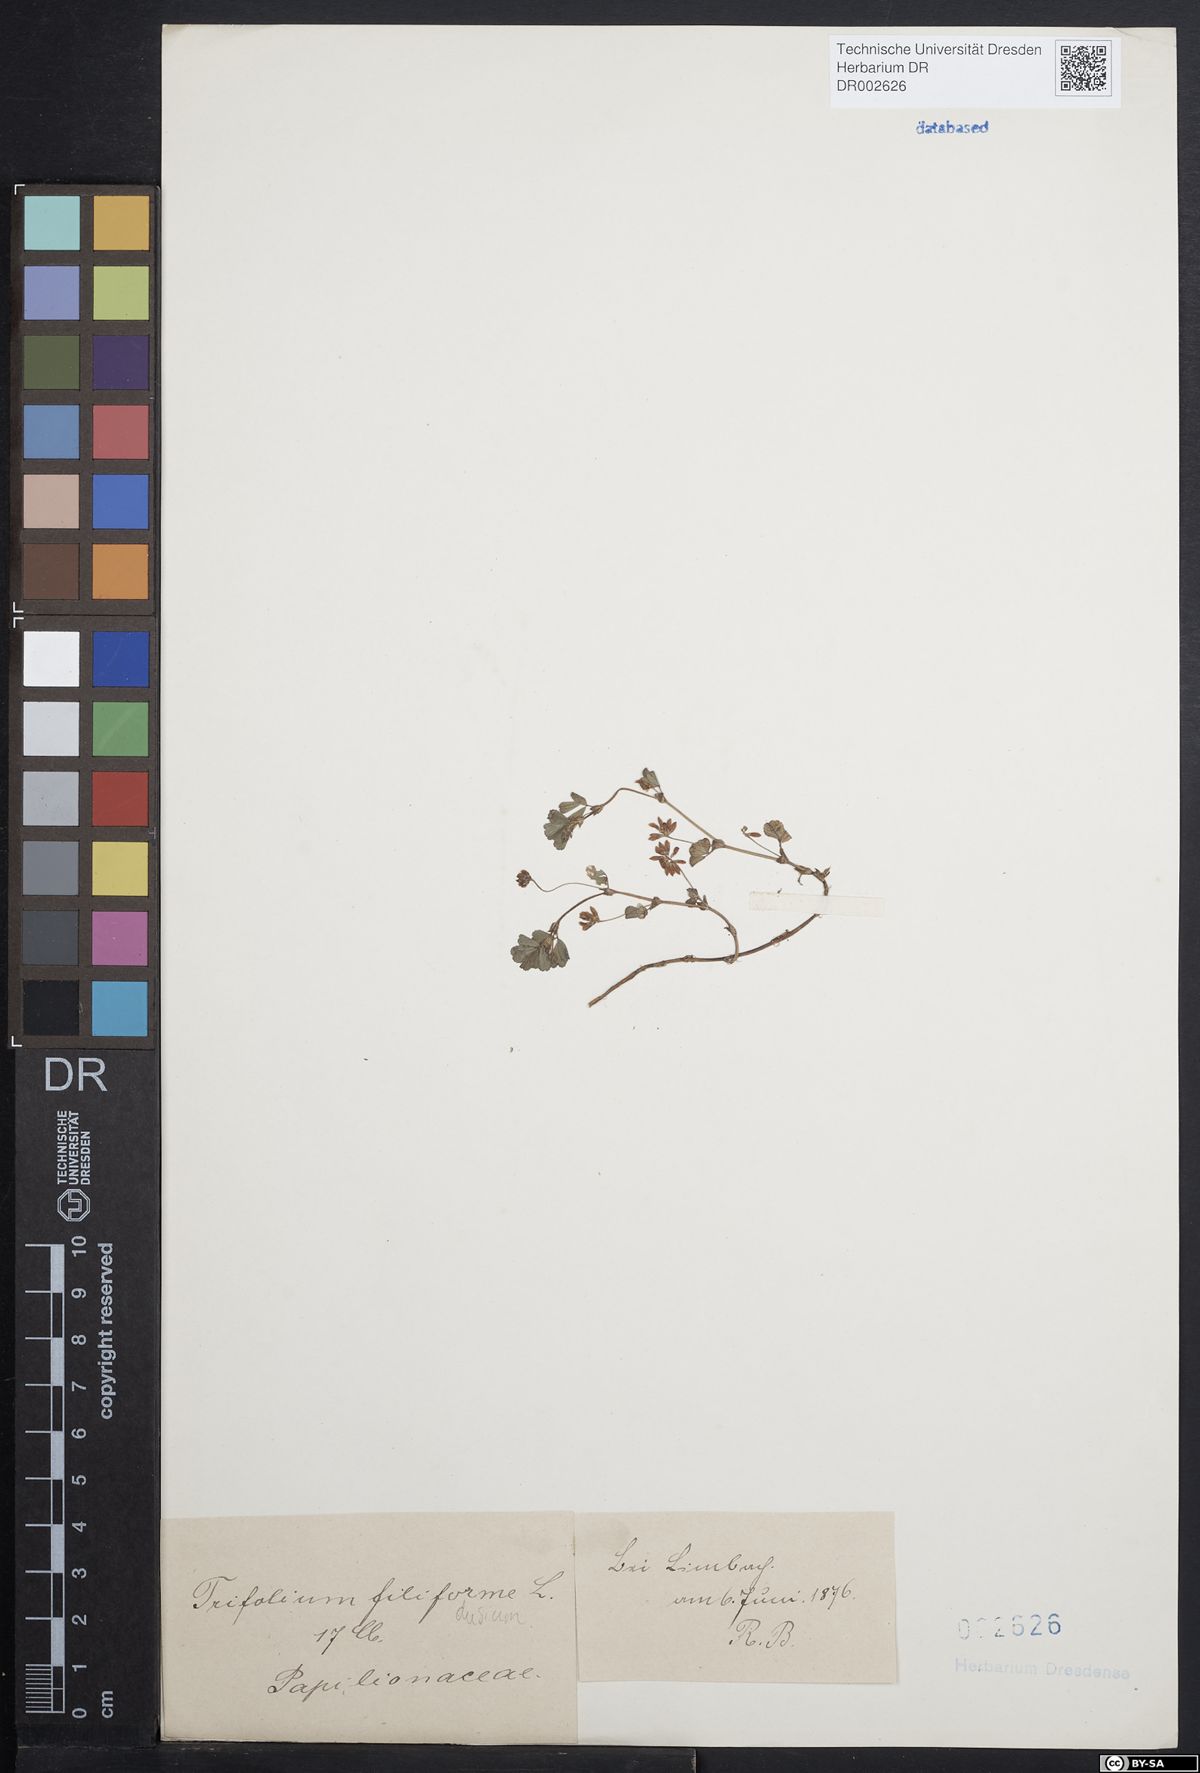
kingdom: Plantae
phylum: Tracheophyta
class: Magnoliopsida
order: Fabales
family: Fabaceae
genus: Trifolium
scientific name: Trifolium dubium
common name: Suckling clover
